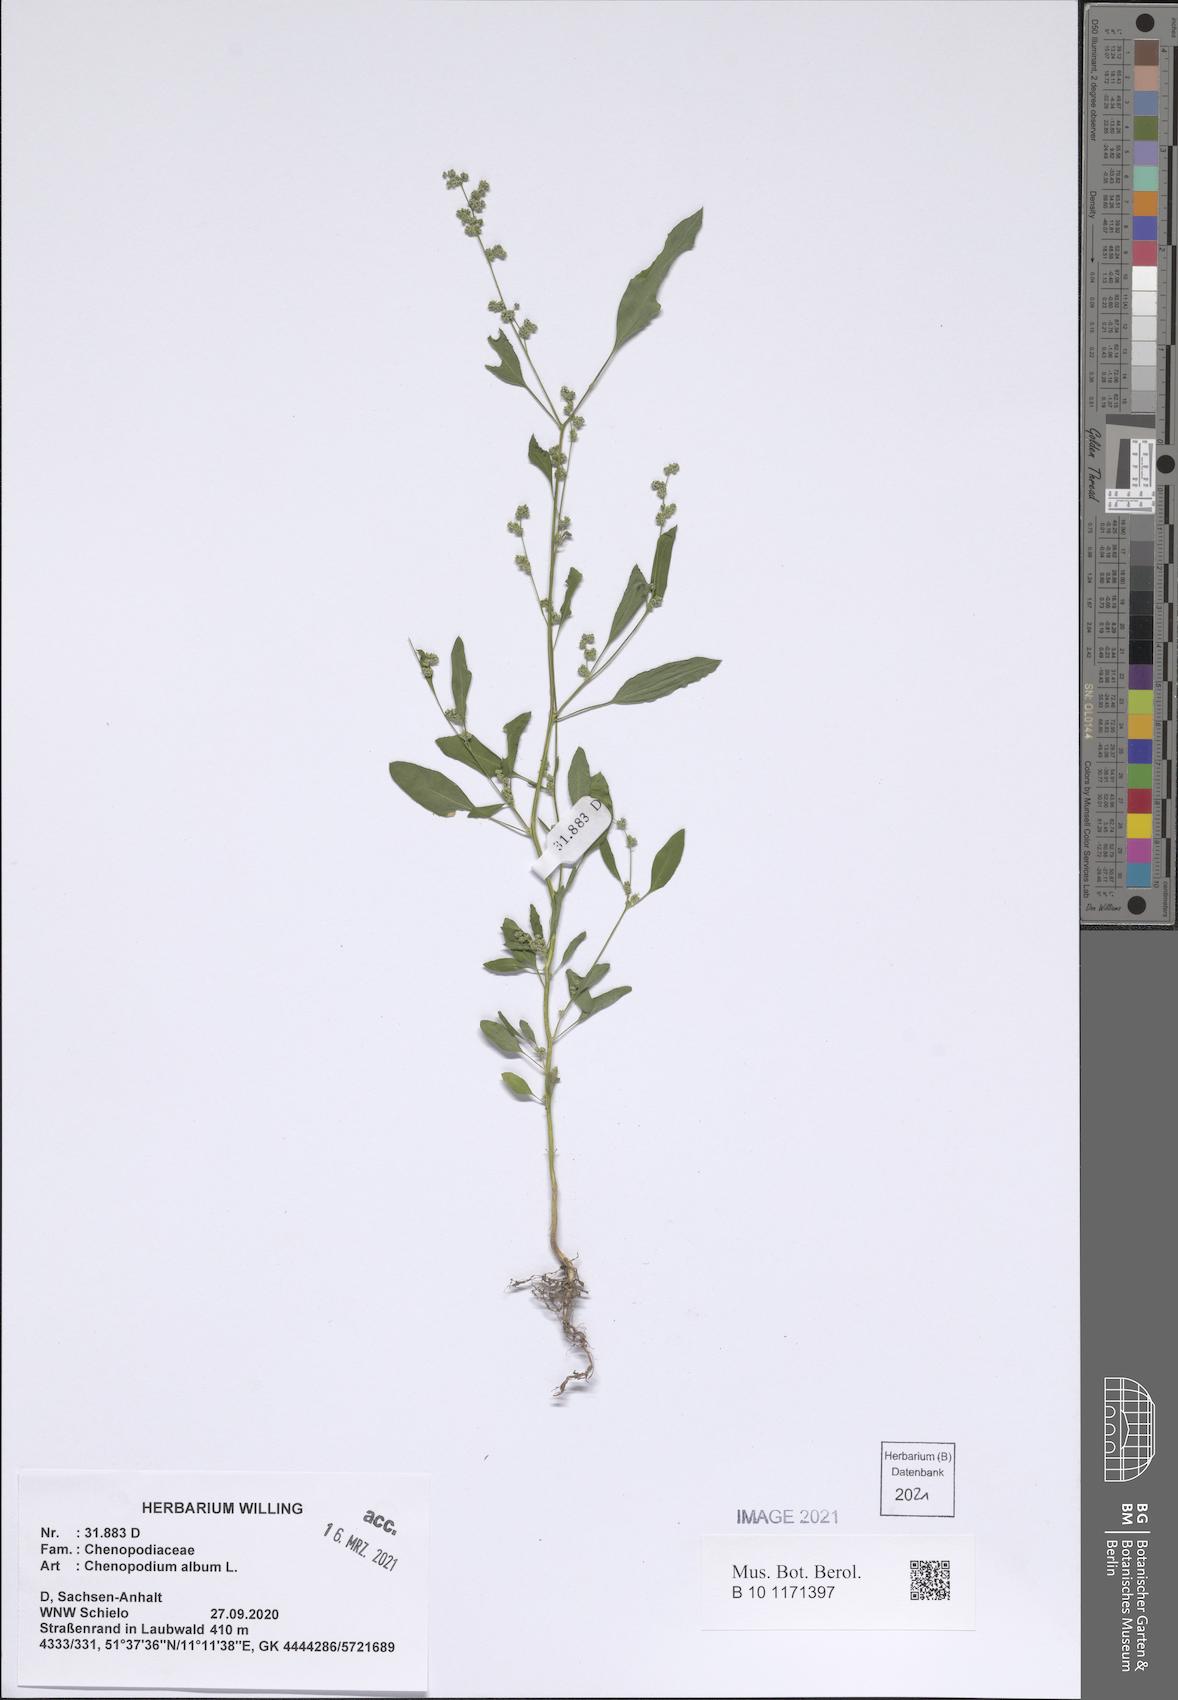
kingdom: Plantae
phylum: Tracheophyta
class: Magnoliopsida
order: Caryophyllales
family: Amaranthaceae
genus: Chenopodium
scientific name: Chenopodium album
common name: Fat-hen
